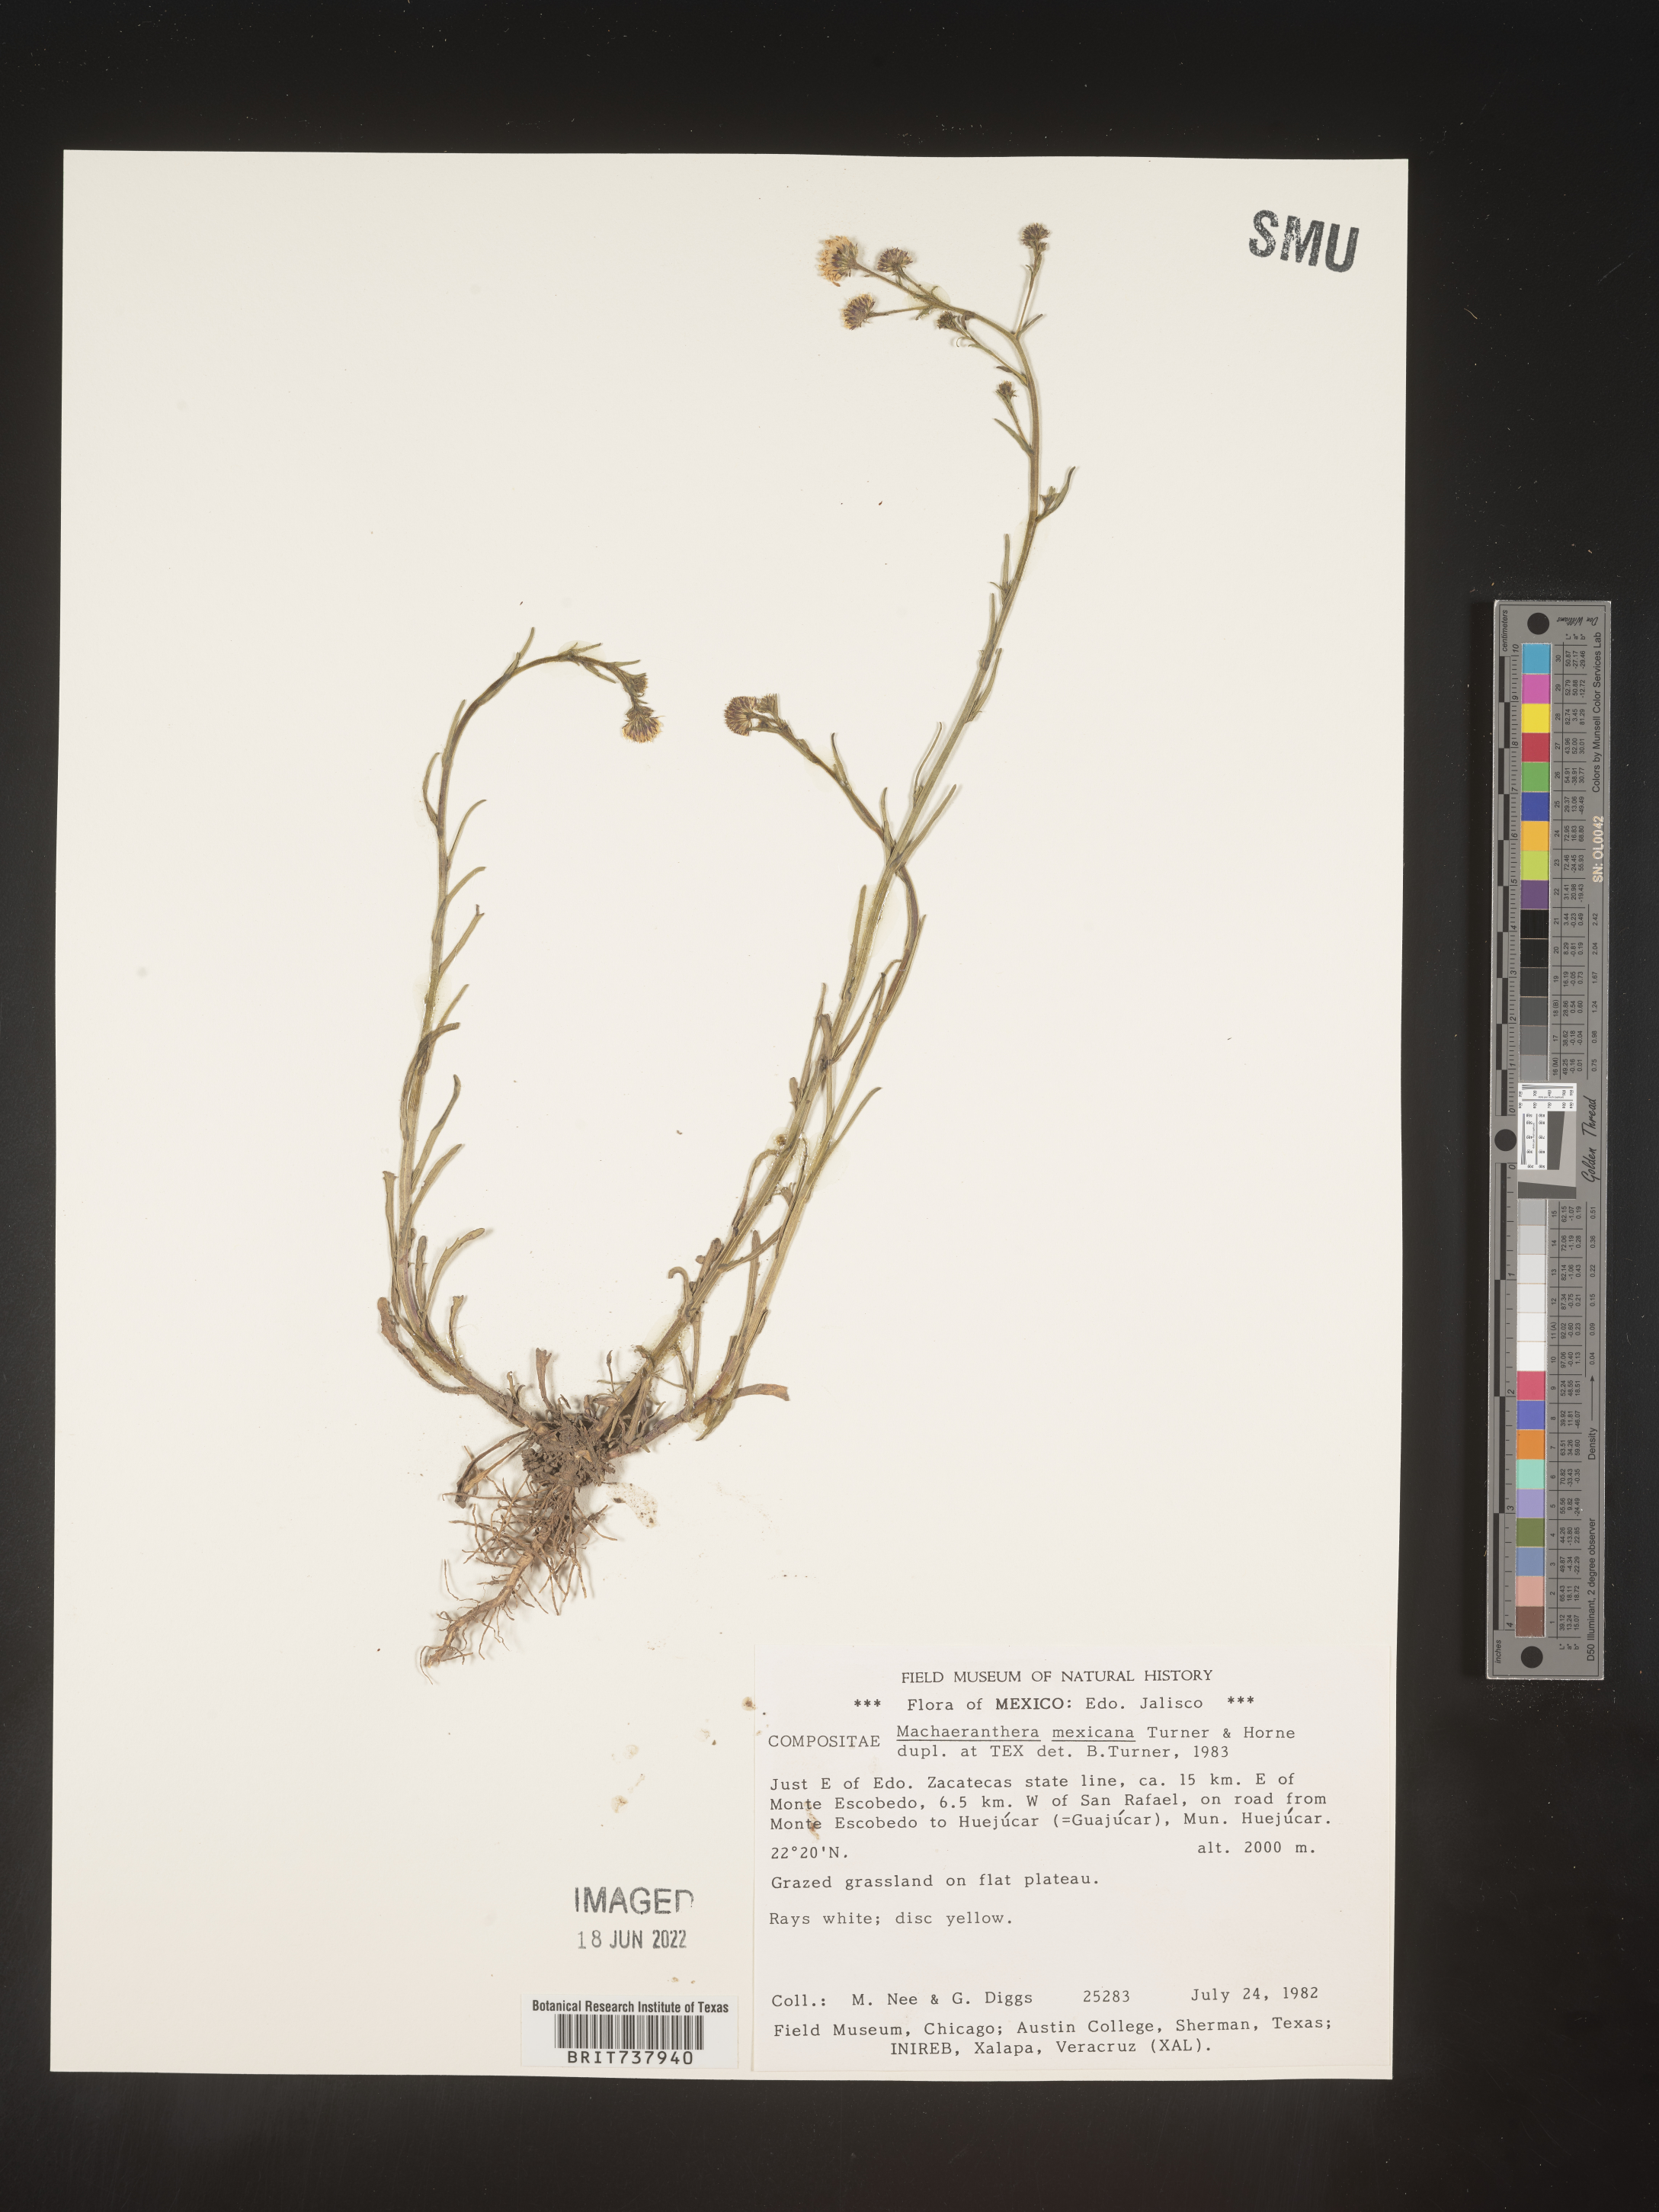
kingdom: Plantae
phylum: Tracheophyta
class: Magnoliopsida
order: Asterales
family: Asteraceae
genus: Psilactis
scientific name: Psilactis
